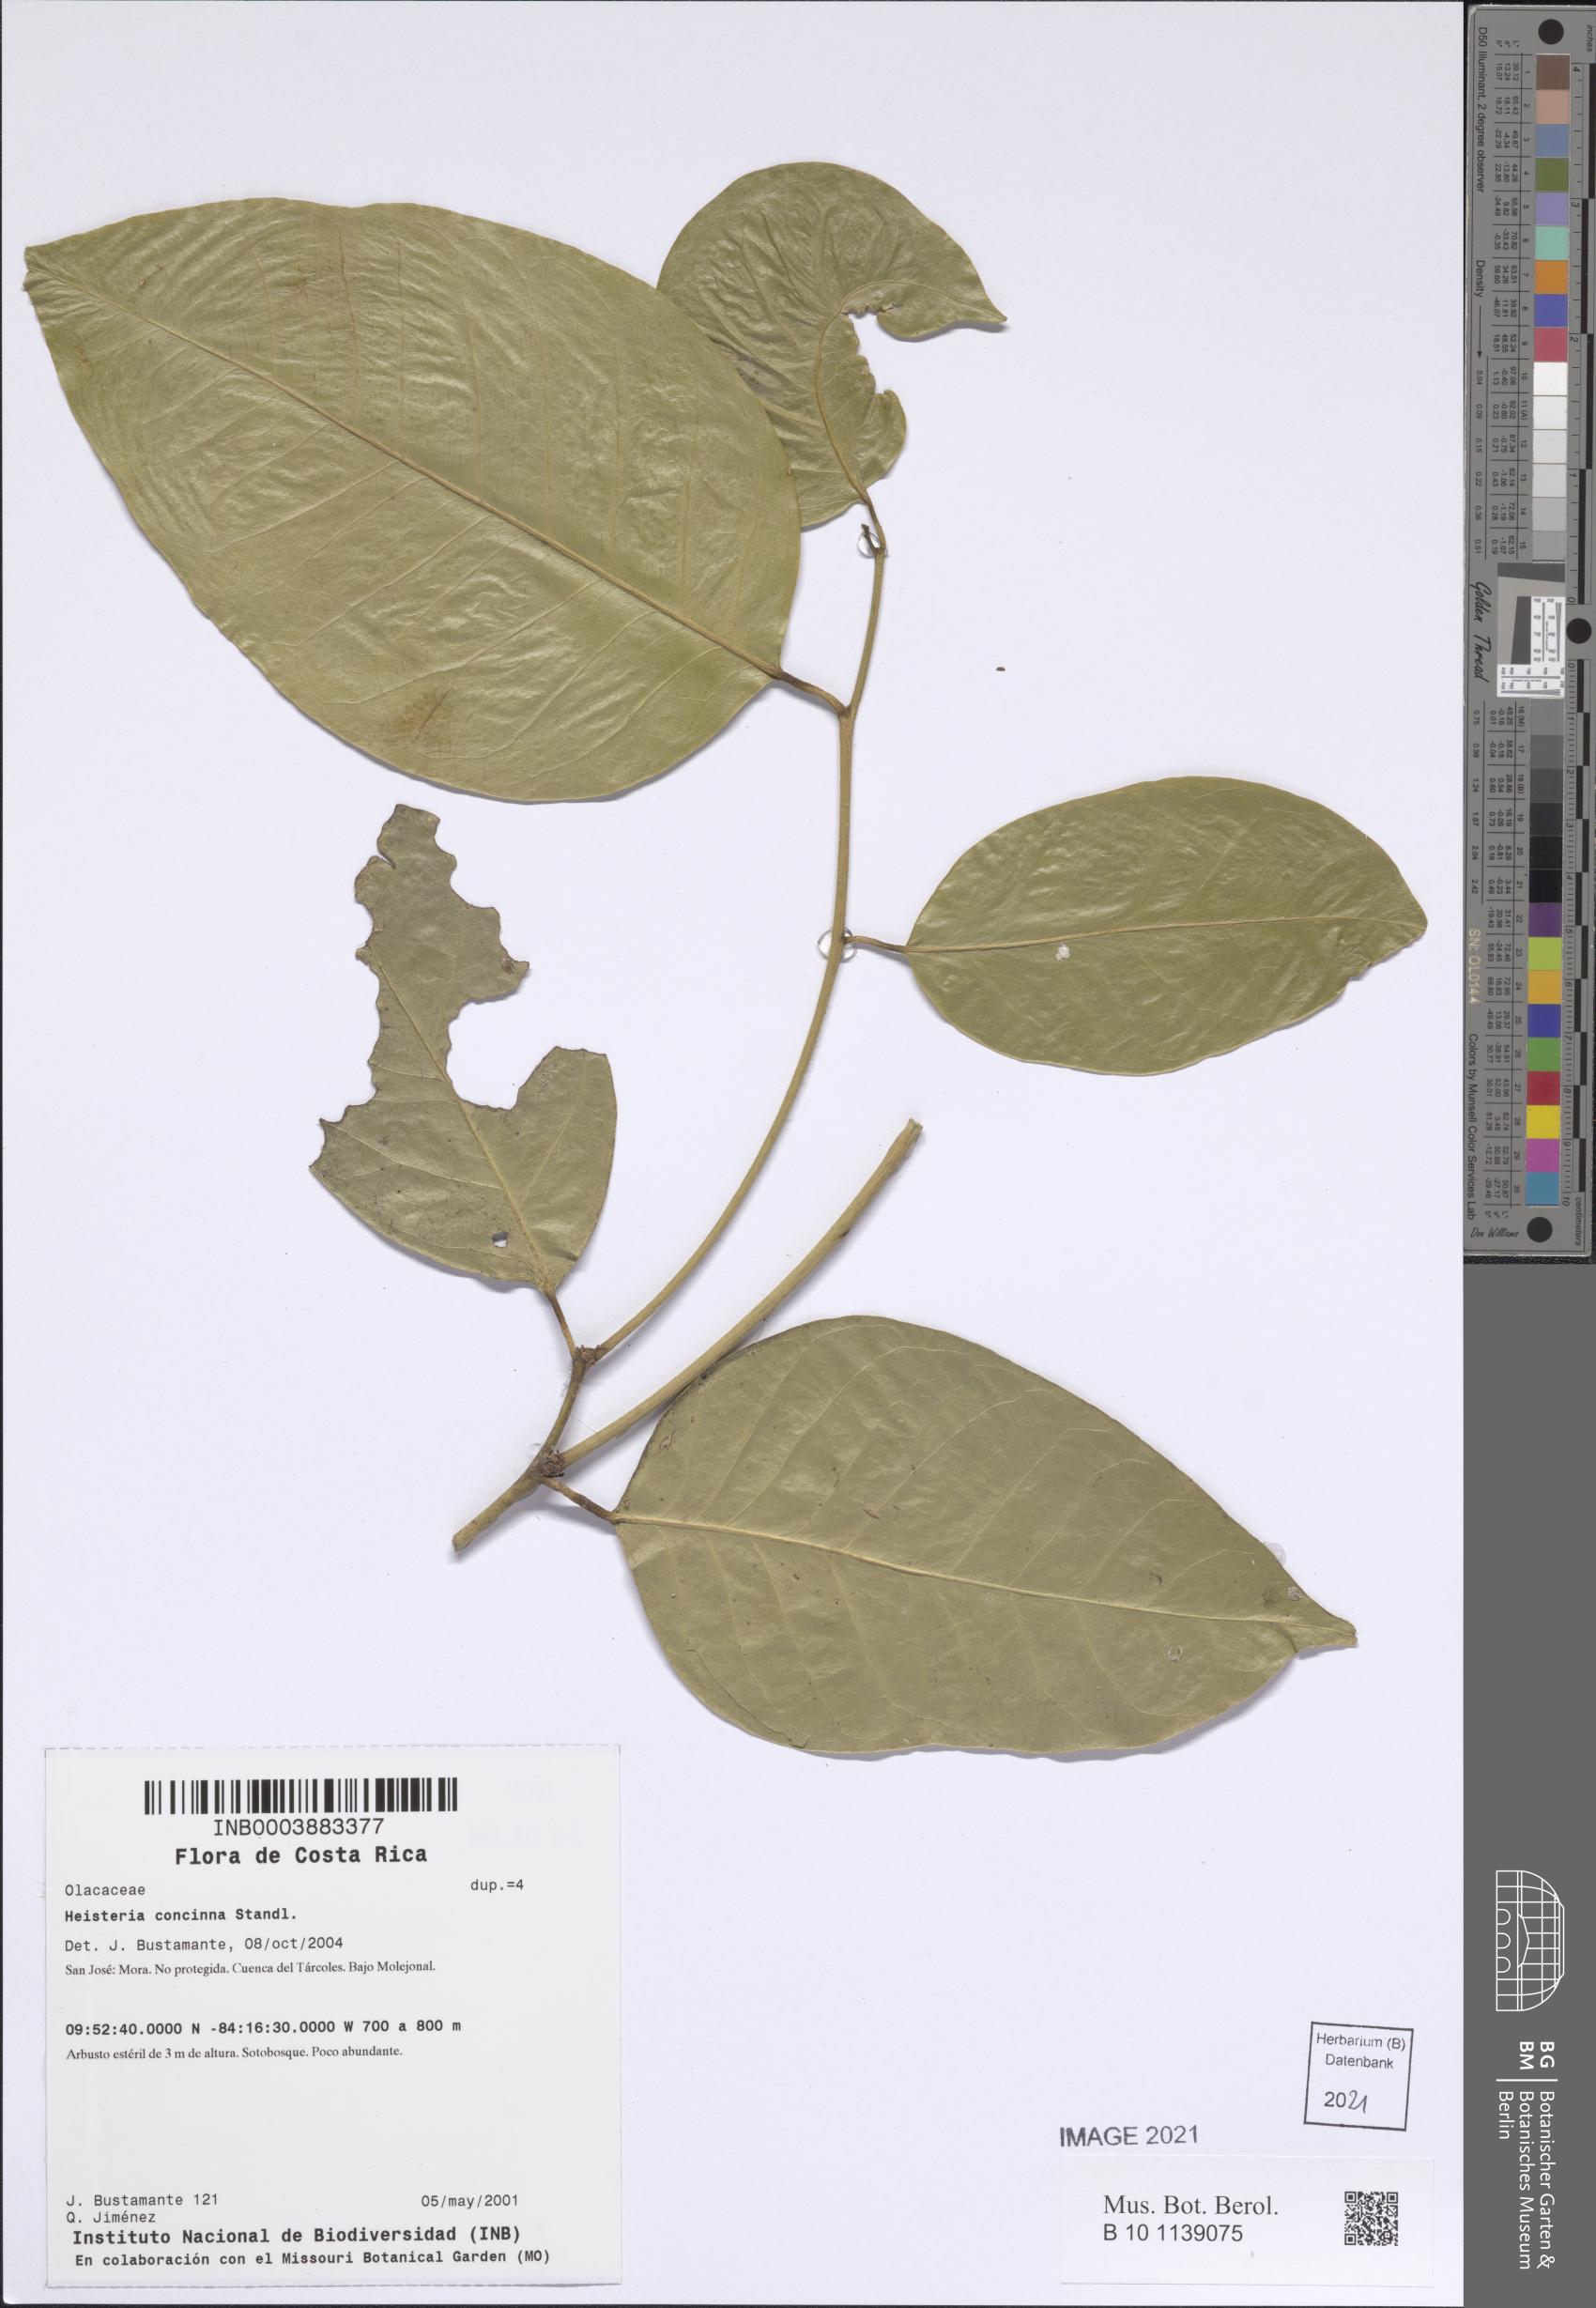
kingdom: Plantae
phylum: Tracheophyta
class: Magnoliopsida
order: Santalales
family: Erythropalaceae
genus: Heisteria
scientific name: Heisteria concinna
